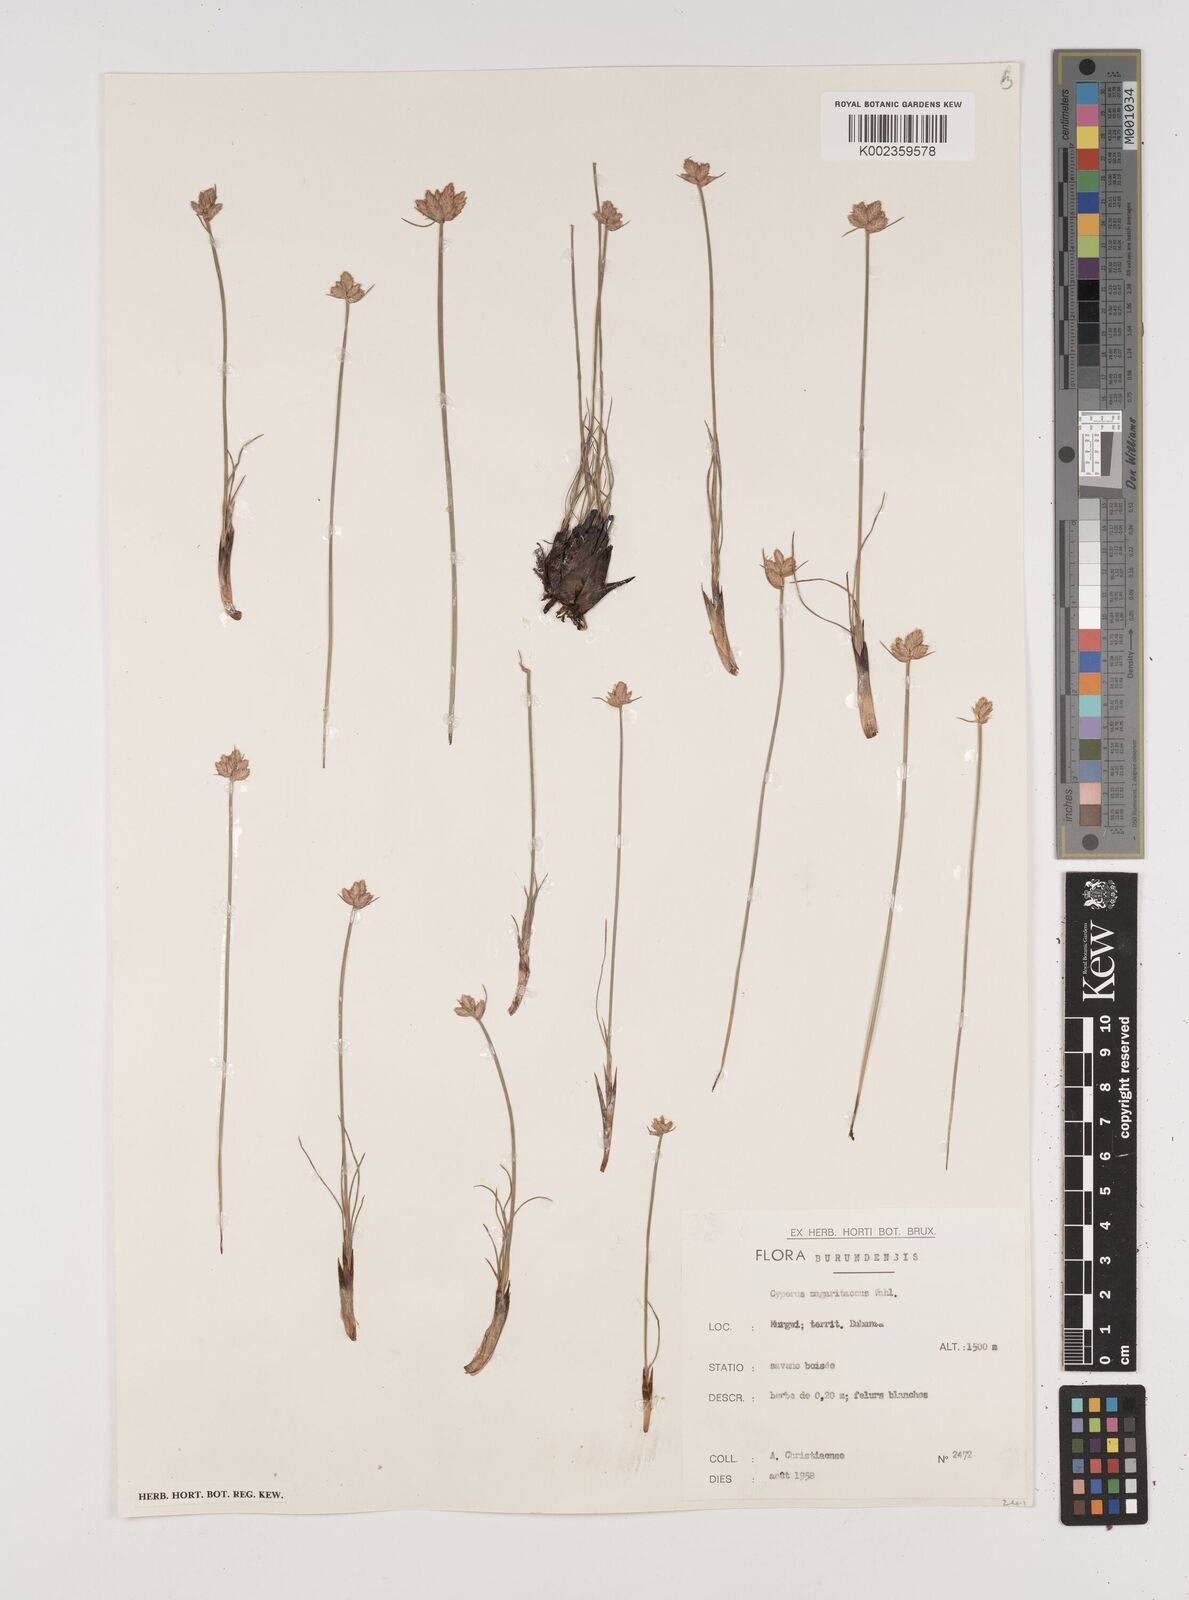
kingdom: Plantae
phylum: Tracheophyta
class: Liliopsida
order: Poales
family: Cyperaceae
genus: Cyperus
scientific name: Cyperus nduru
